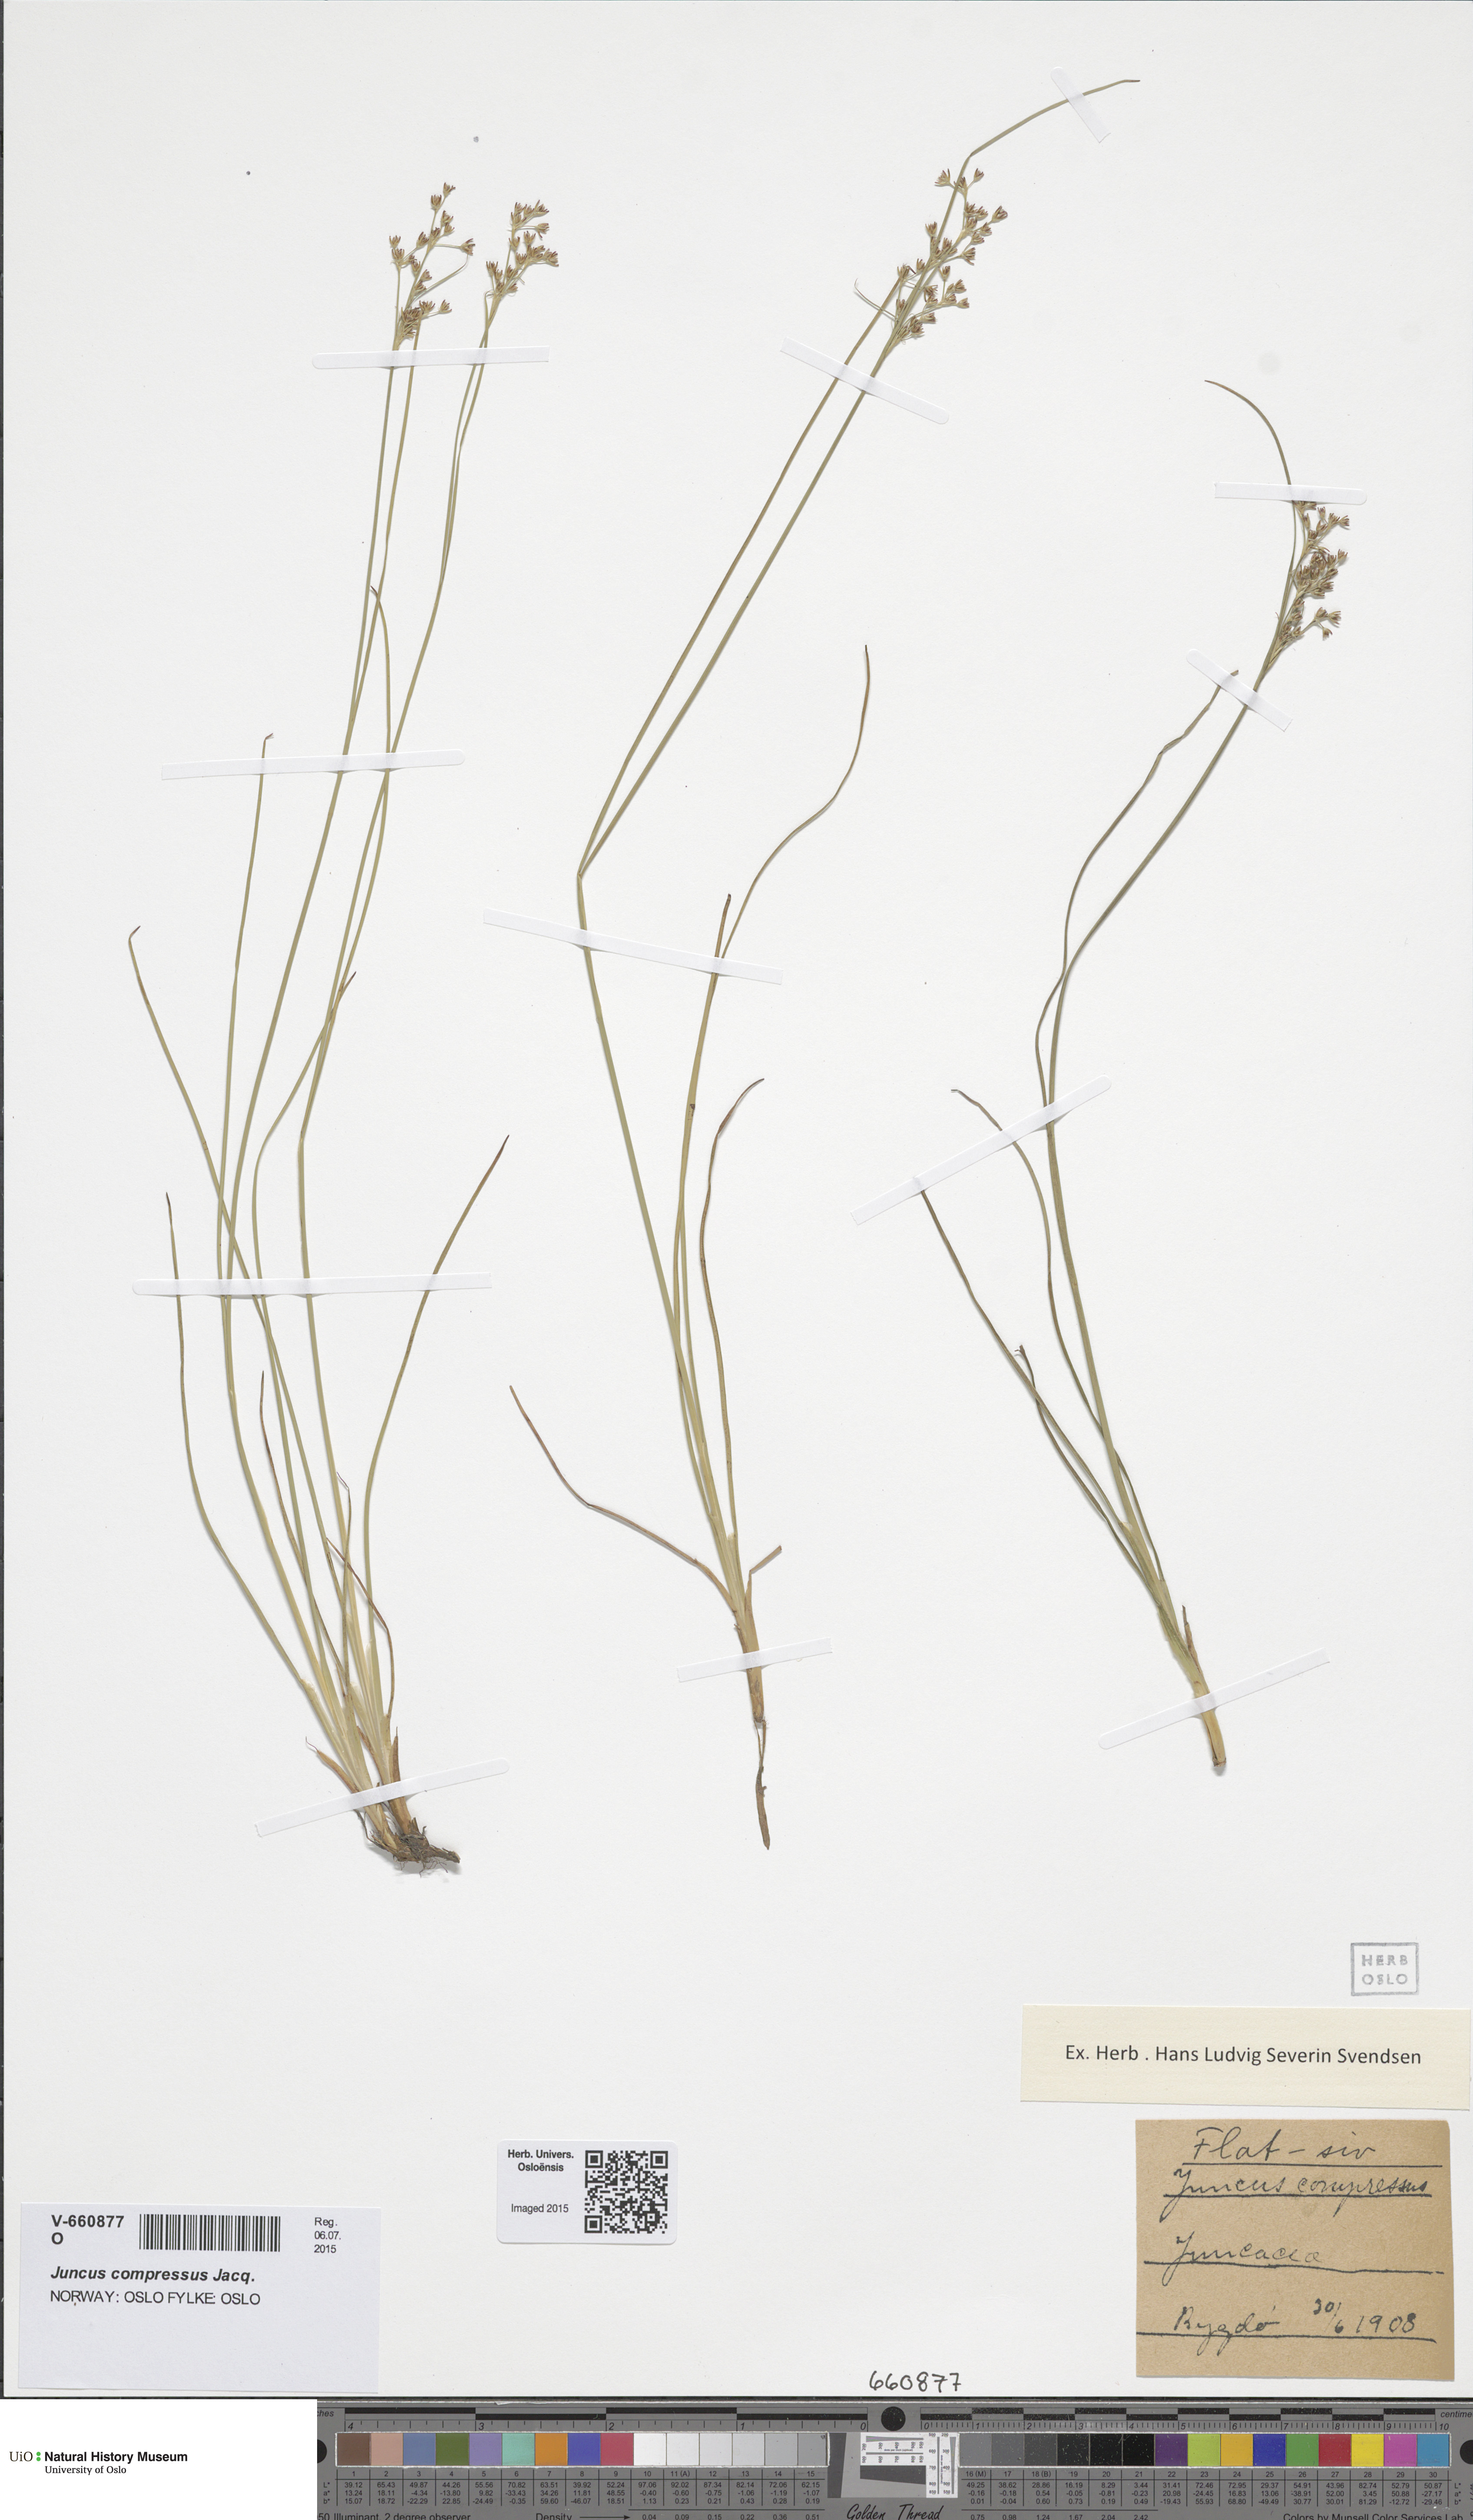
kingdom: Plantae
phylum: Tracheophyta
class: Liliopsida
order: Poales
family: Juncaceae
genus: Juncus
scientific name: Juncus compressus
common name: Round-fruited rush
